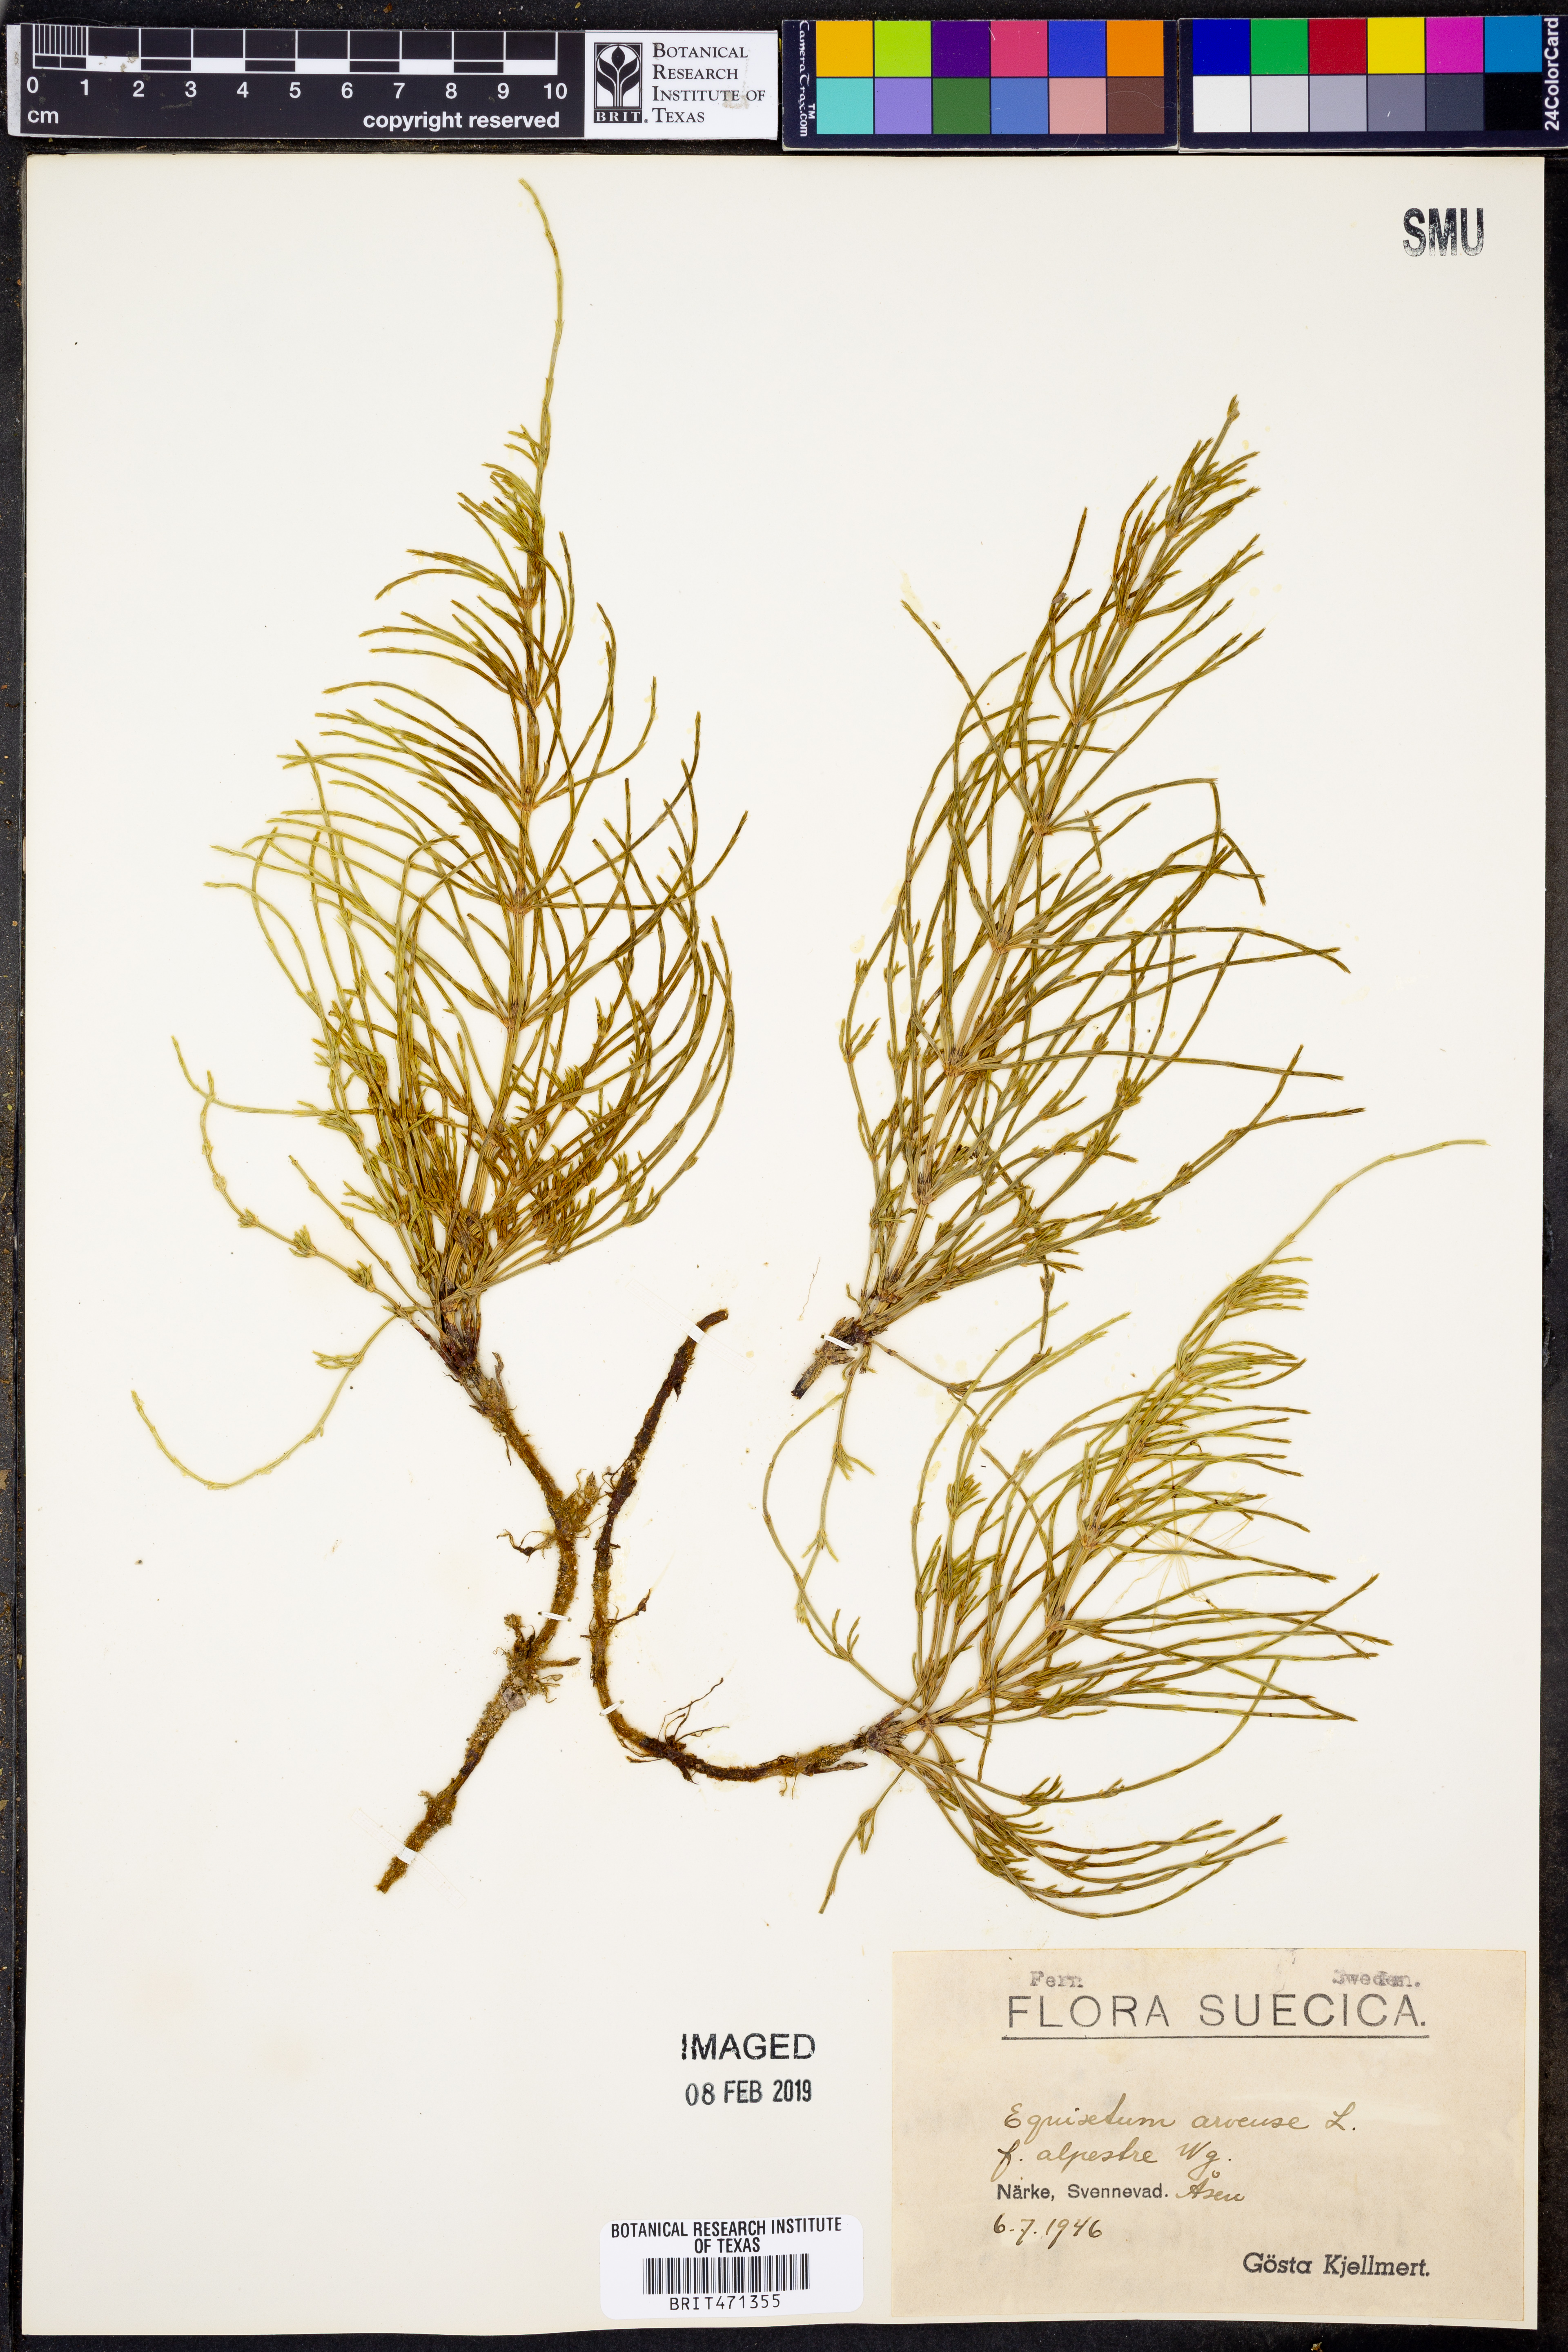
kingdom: Plantae
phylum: Tracheophyta
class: Polypodiopsida
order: Equisetales
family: Equisetaceae
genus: Equisetum
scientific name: Equisetum arvense
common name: Field horsetail
